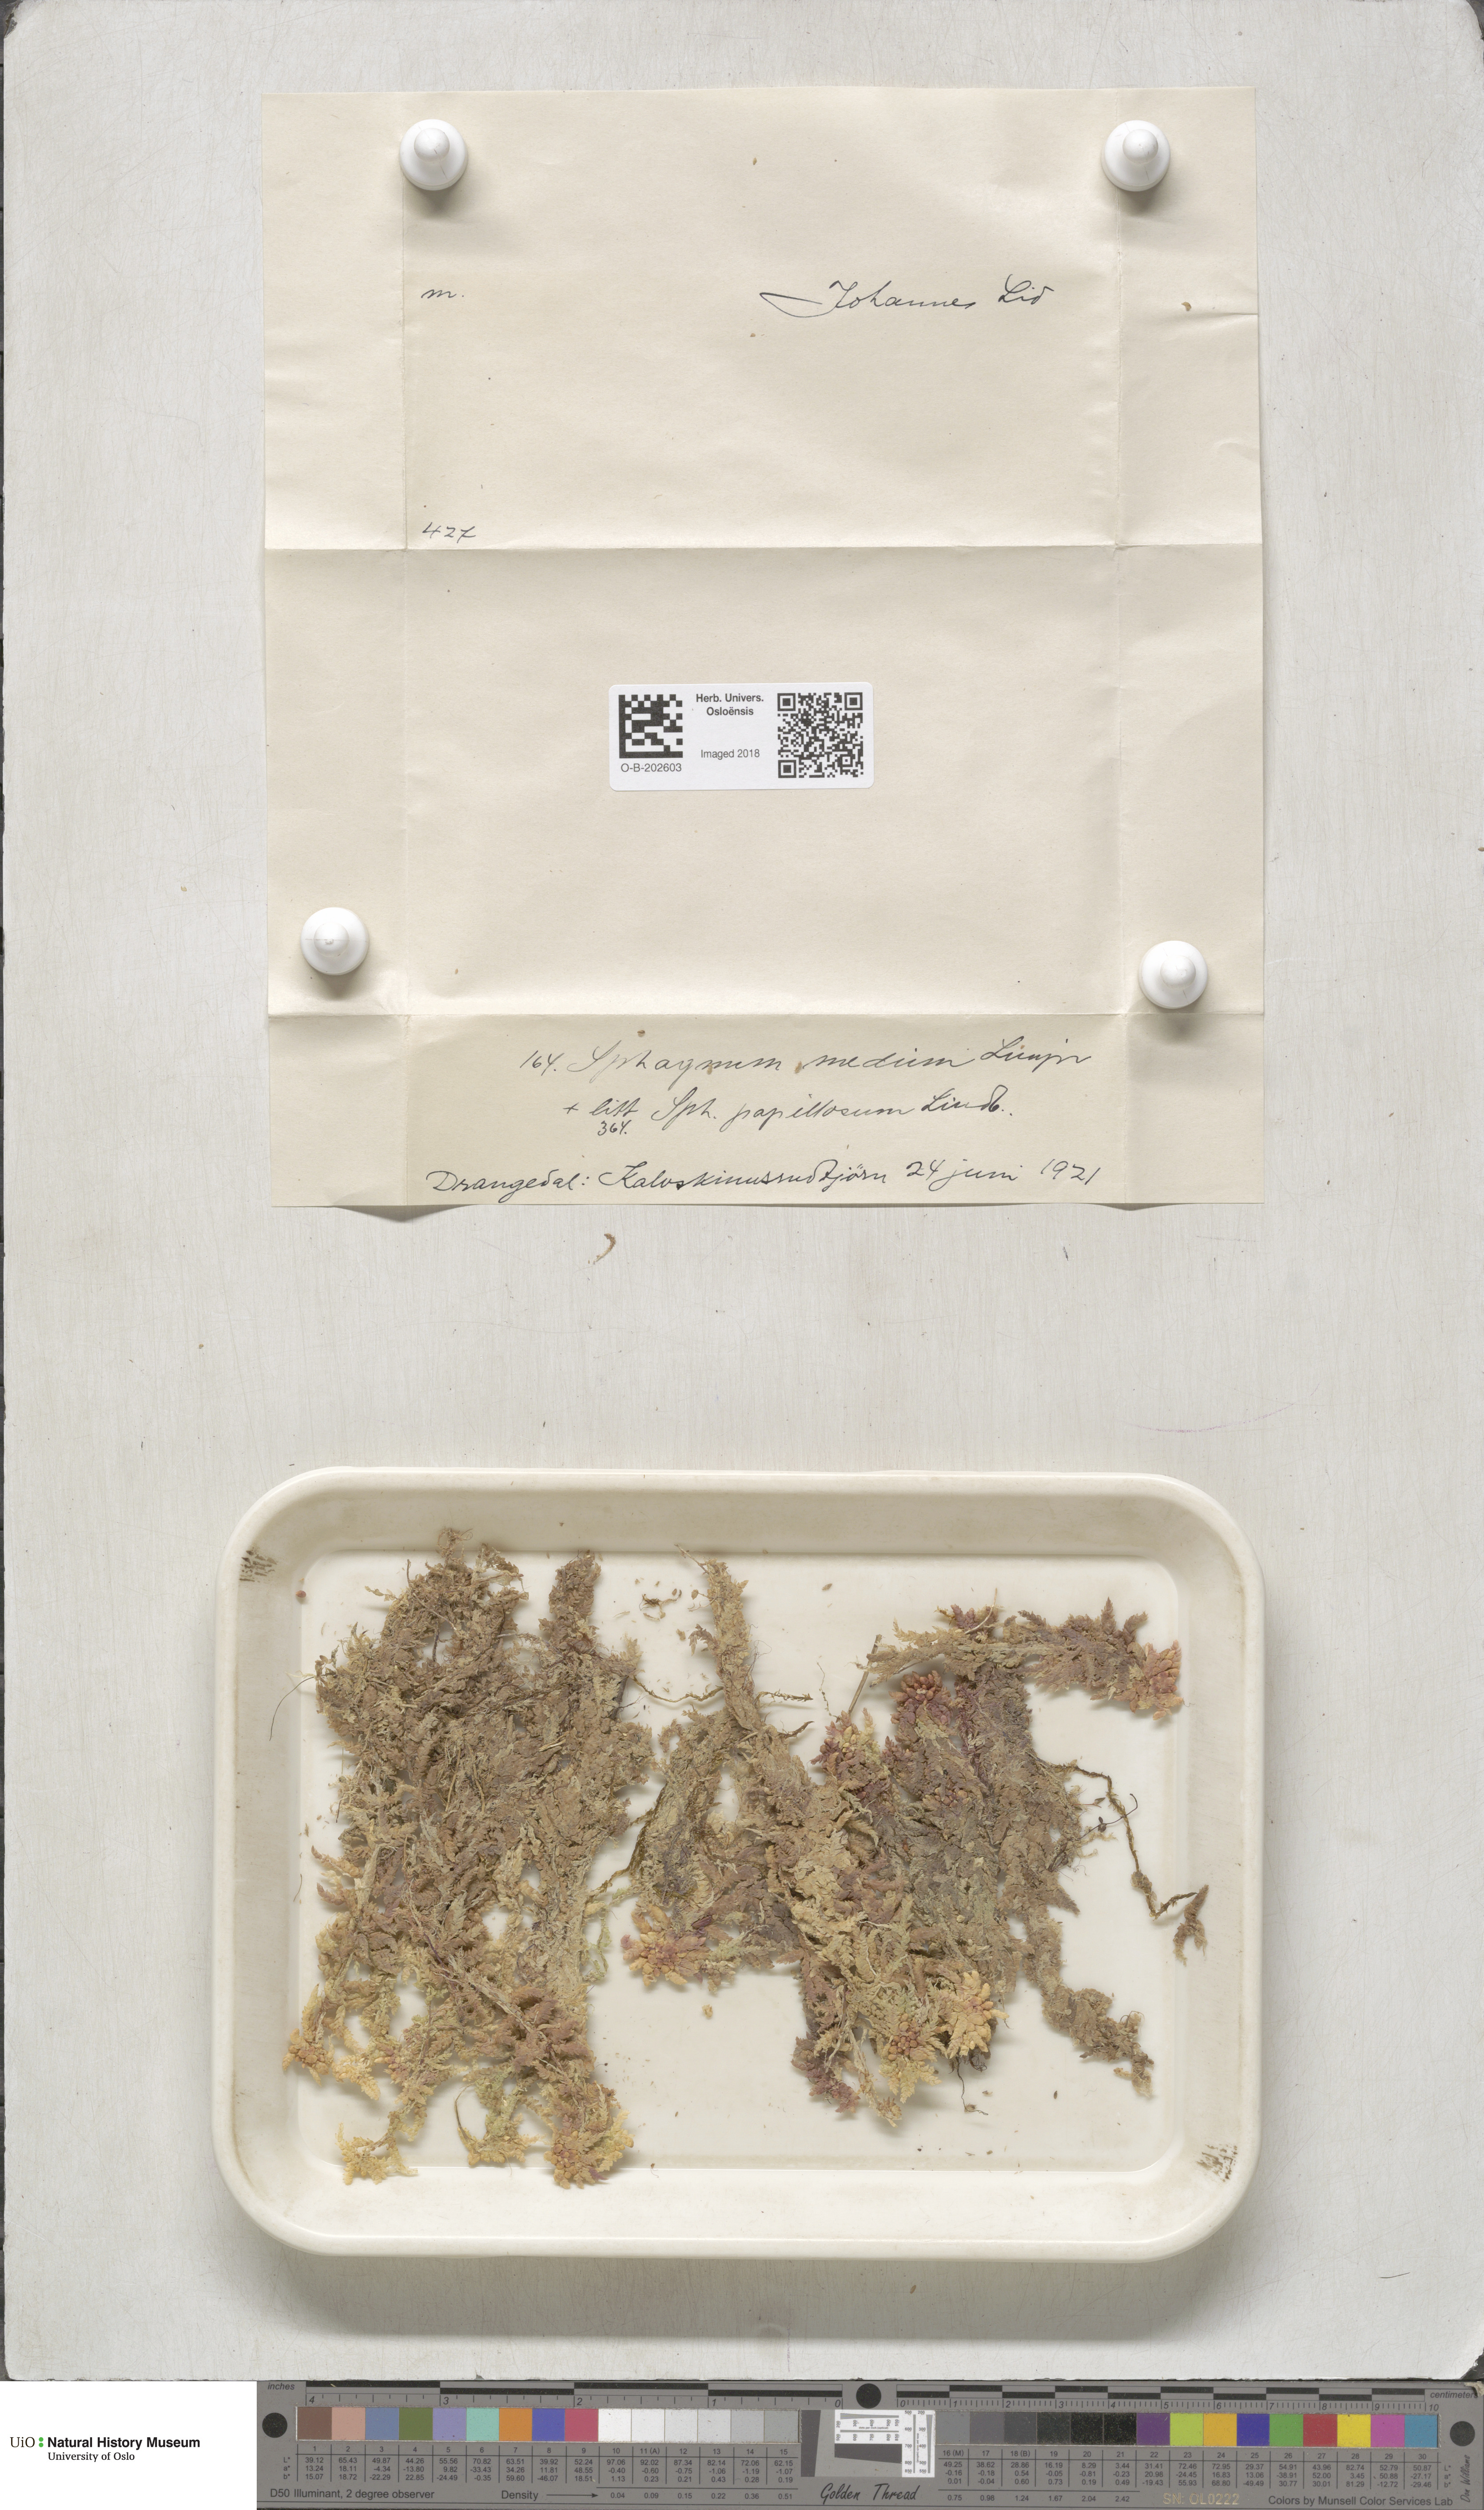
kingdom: Plantae
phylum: Bryophyta
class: Sphagnopsida
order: Sphagnales
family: Sphagnaceae
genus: Sphagnum
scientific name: Sphagnum magellanicum
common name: Magellan's peat moss
